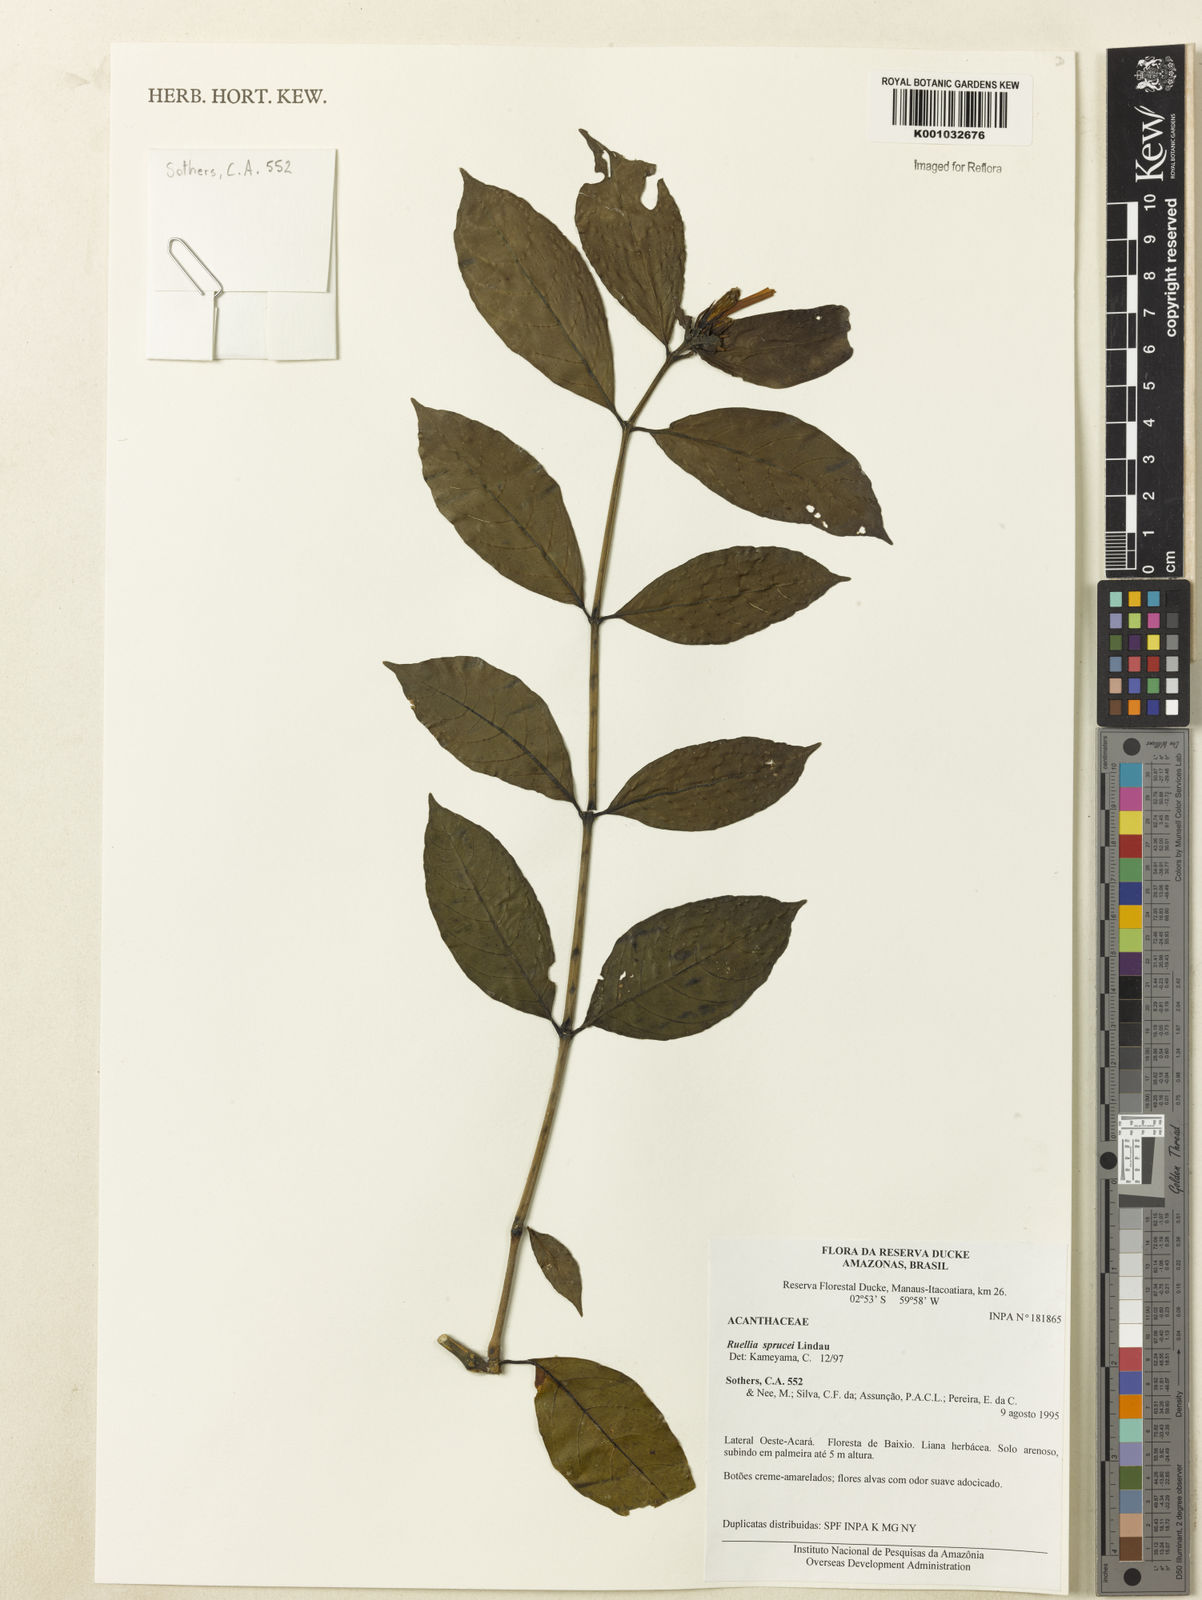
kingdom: Plantae
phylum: Tracheophyta
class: Magnoliopsida
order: Lamiales
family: Acanthaceae
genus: Ruellia
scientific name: Ruellia sprucei
